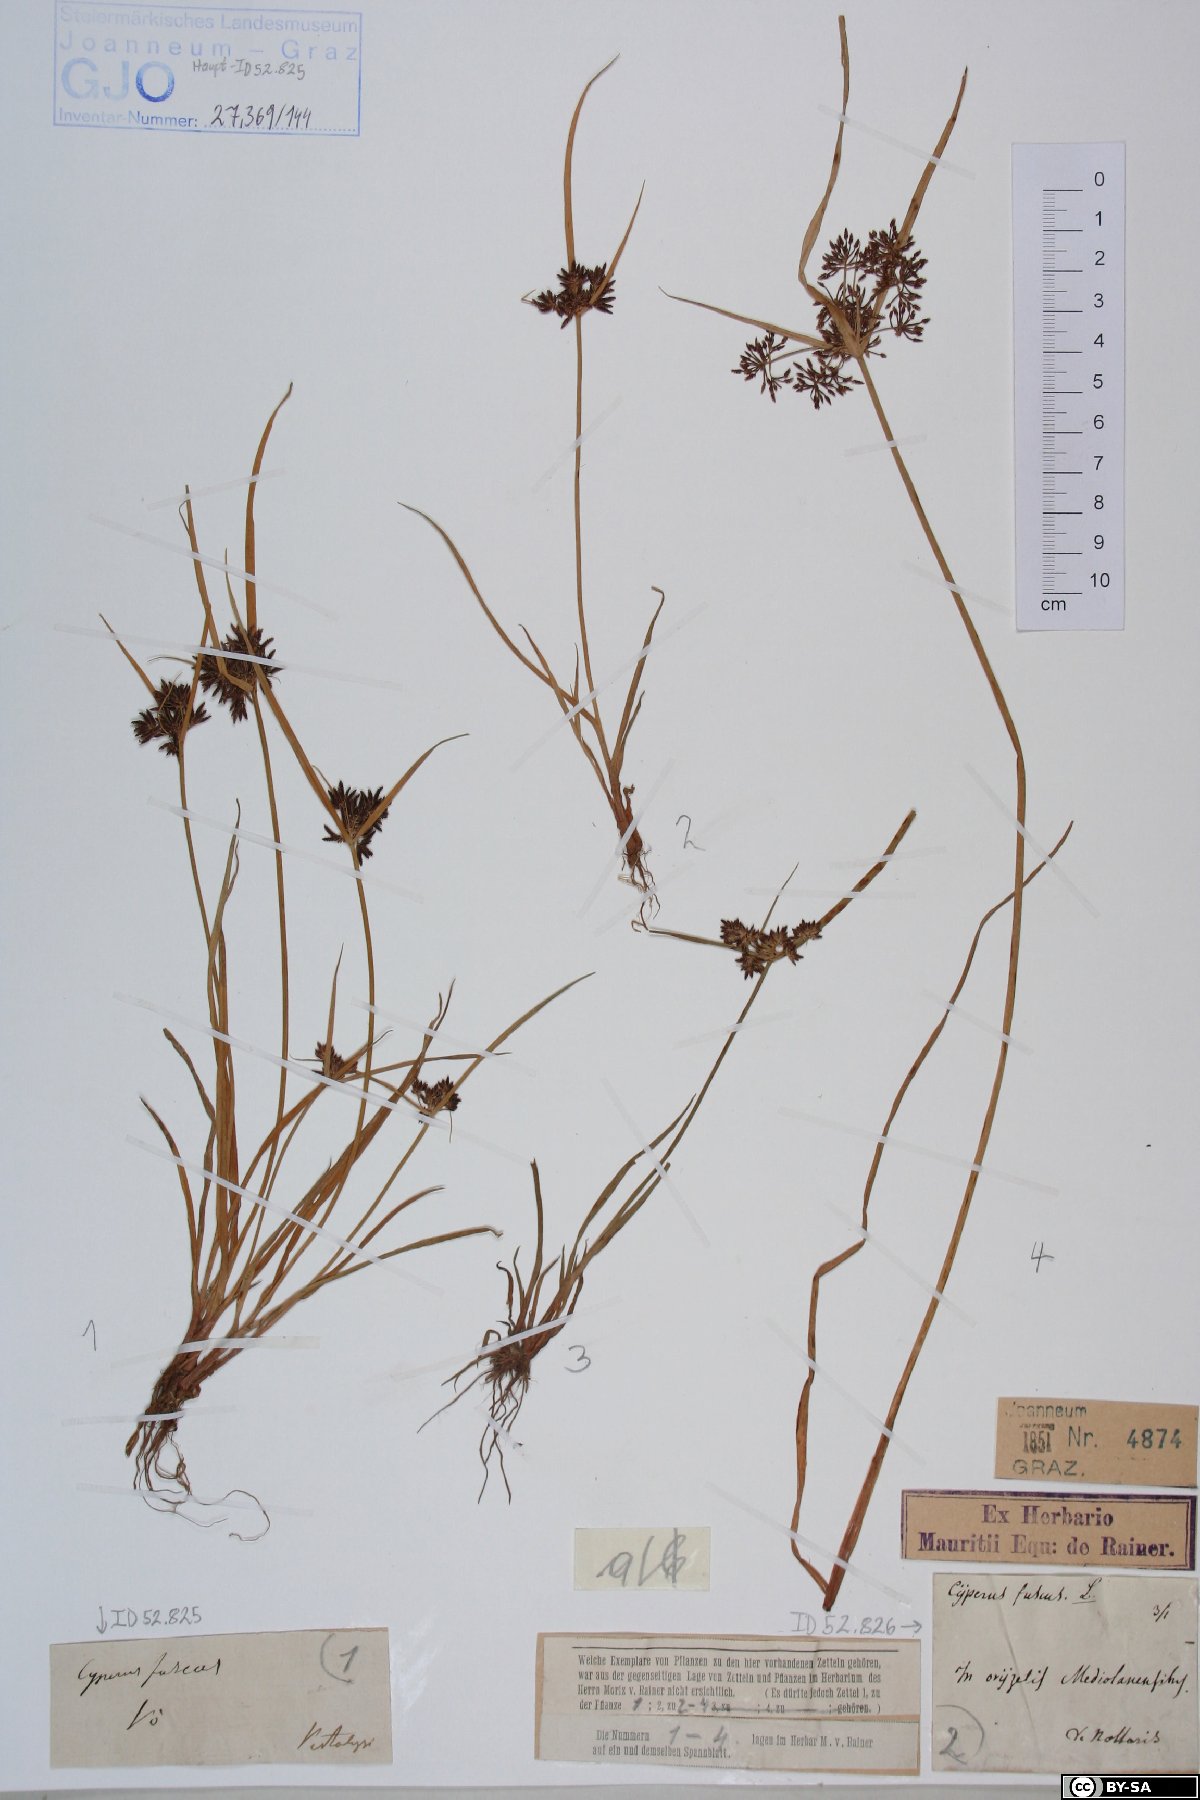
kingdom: Plantae
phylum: Tracheophyta
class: Liliopsida
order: Poales
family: Cyperaceae
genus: Cyperus
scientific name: Cyperus fuscus
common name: Brown galingale
